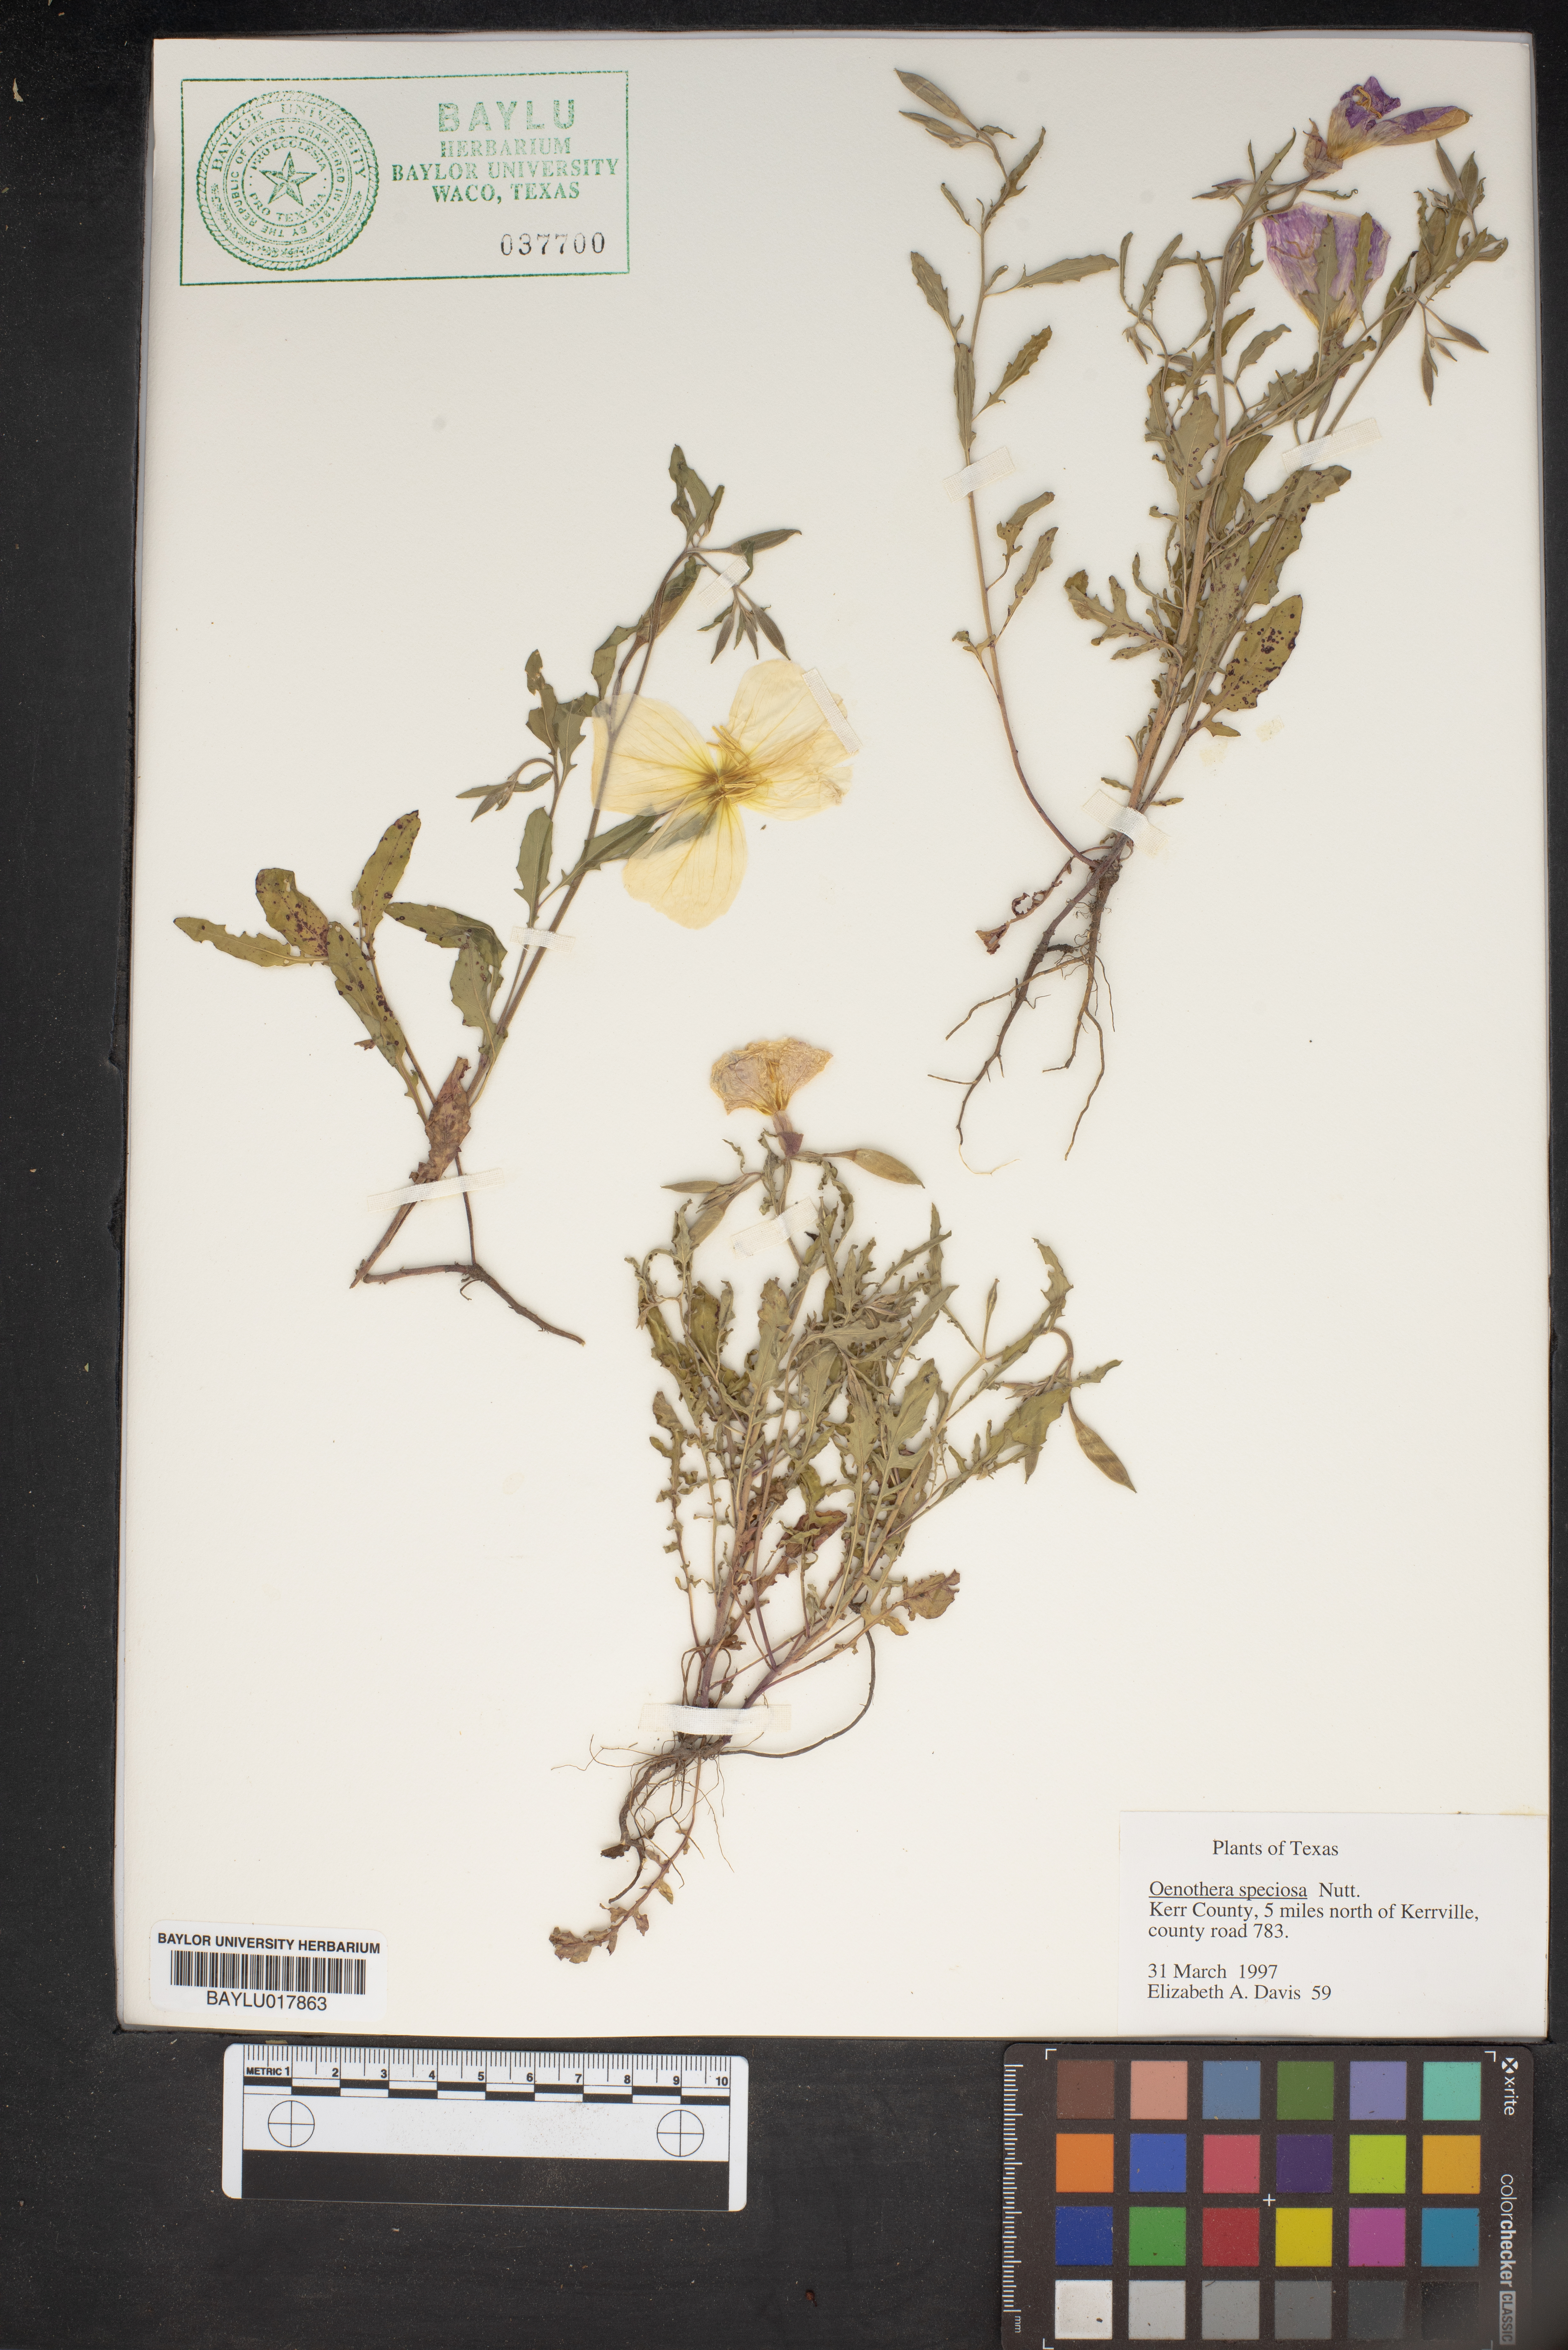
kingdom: Plantae
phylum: Tracheophyta
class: Magnoliopsida
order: Myrtales
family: Onagraceae
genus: Oenothera
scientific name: Oenothera speciosa
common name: White evening-primrose
